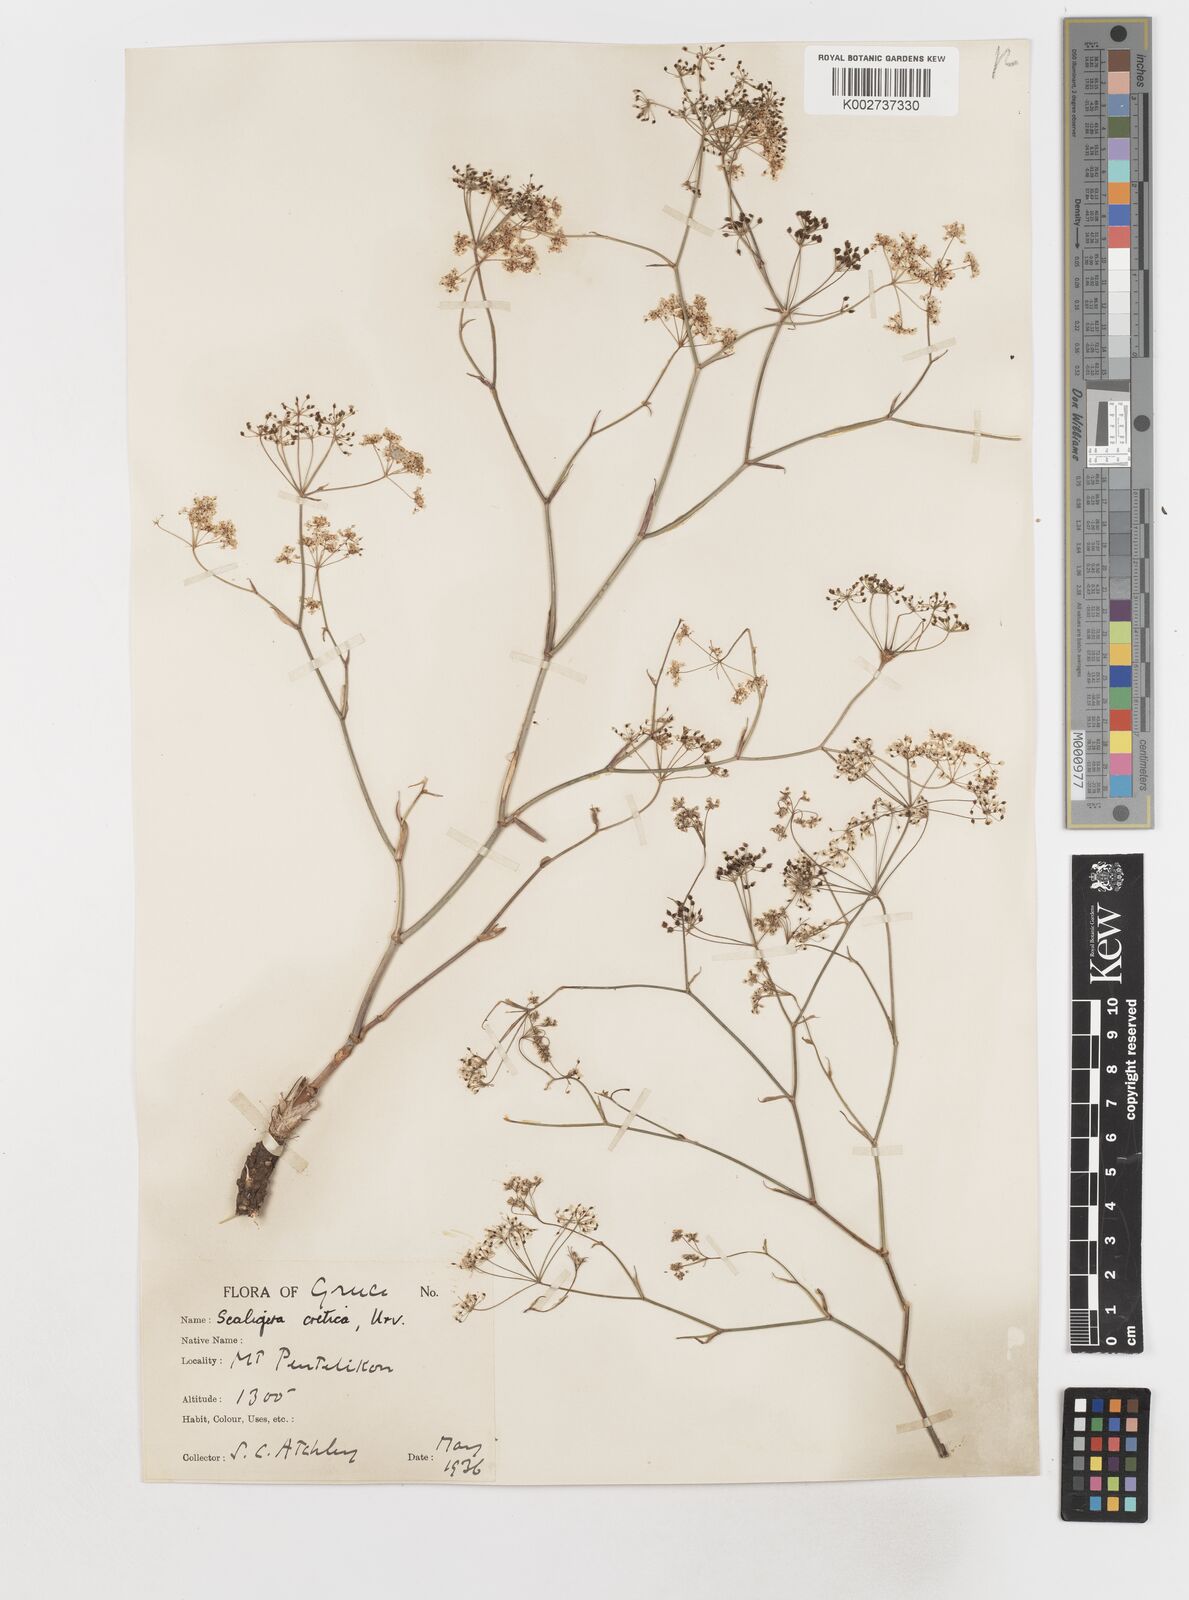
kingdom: Plantae
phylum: Tracheophyta
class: Magnoliopsida
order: Apiales
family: Apiaceae
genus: Scaligeria
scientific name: Scaligeria napiformis
